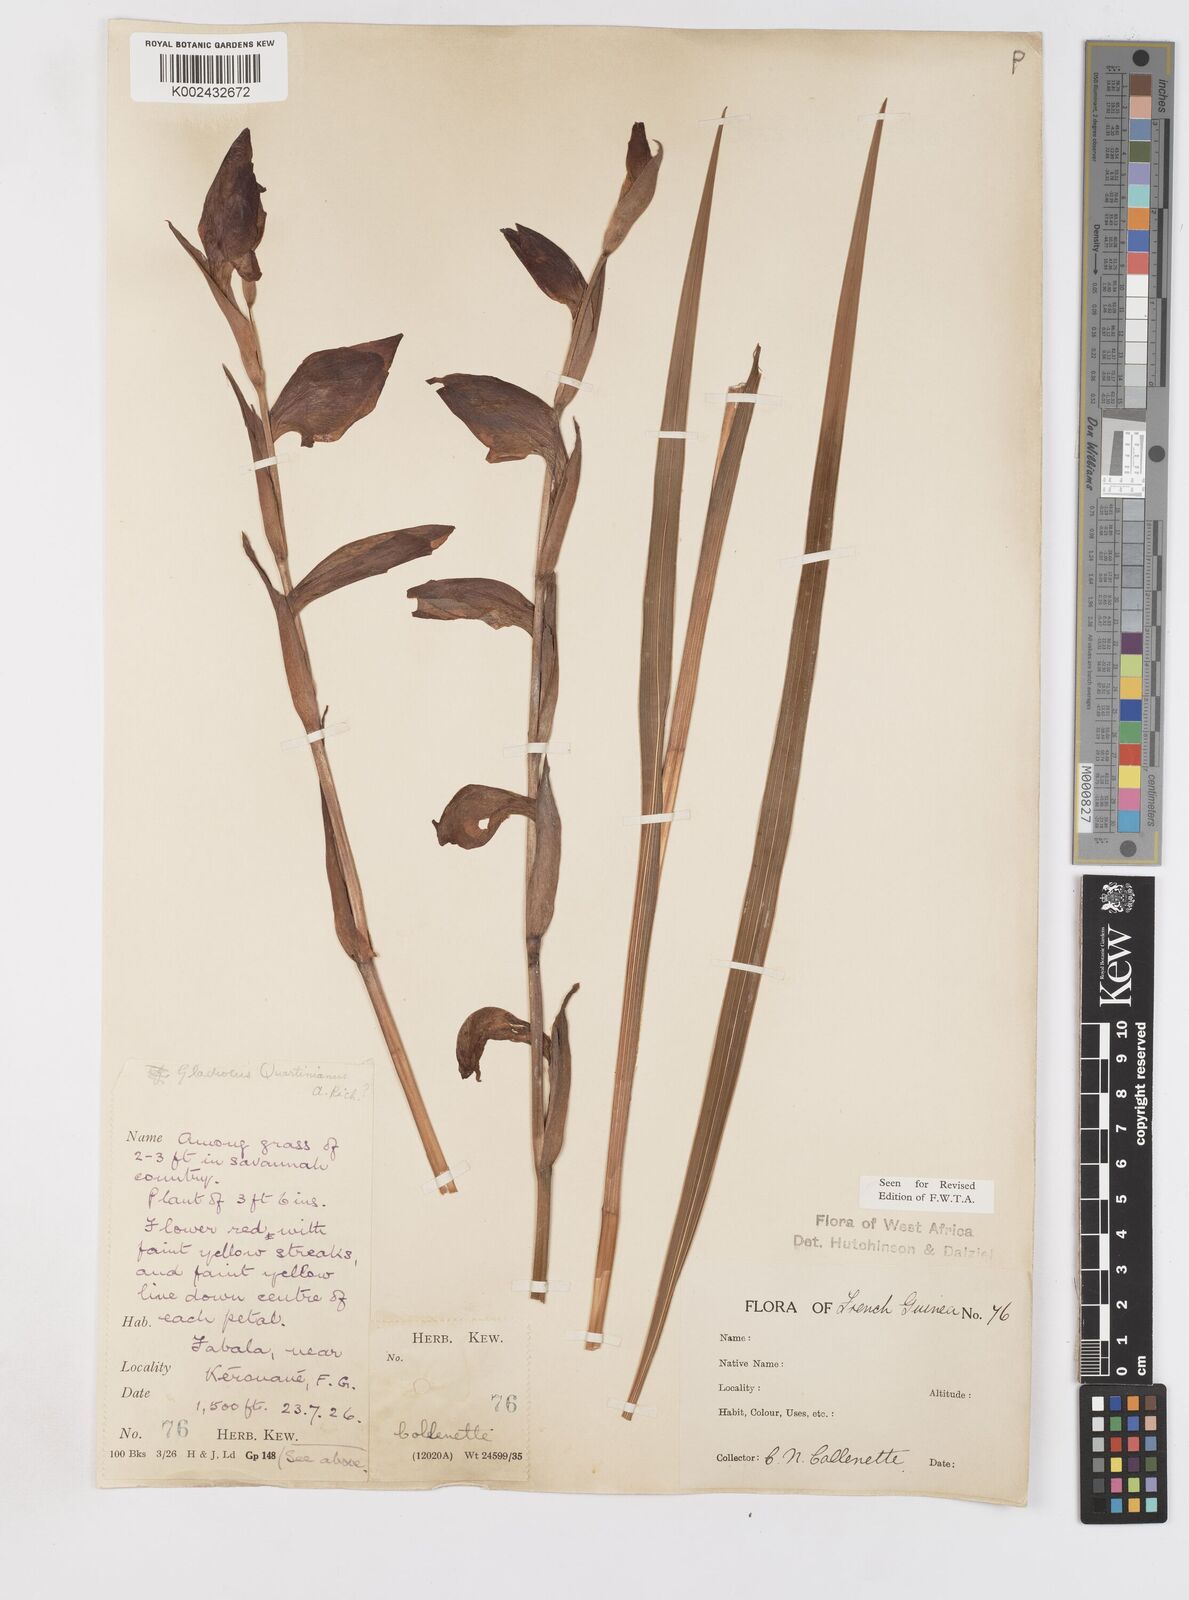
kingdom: Plantae
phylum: Tracheophyta
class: Liliopsida
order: Asparagales
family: Iridaceae
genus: Gladiolus
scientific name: Gladiolus dalenii
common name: Cornflag
